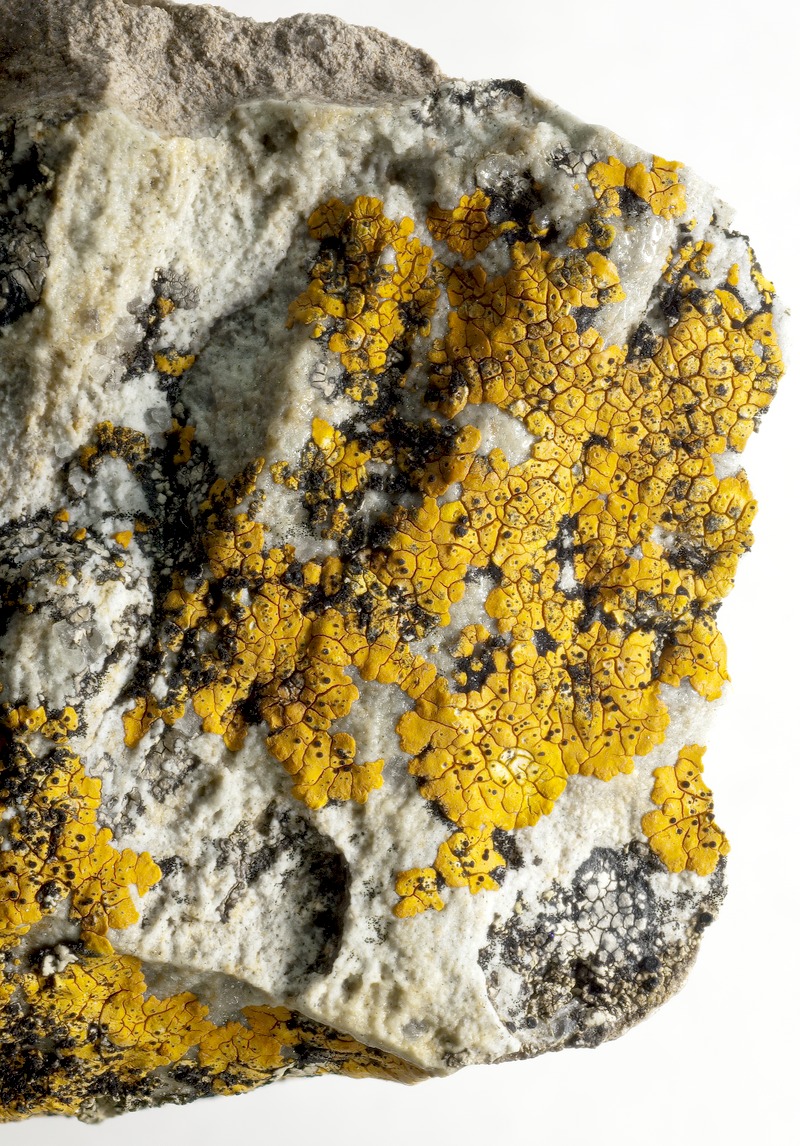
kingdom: Fungi
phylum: Ascomycota
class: Lecanoromycetes
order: Teloschistales
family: Teloschistaceae
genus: Neobrownliella
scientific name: Neobrownliella cinnabarina
